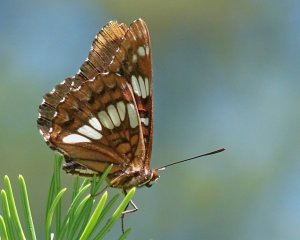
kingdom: Animalia
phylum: Arthropoda
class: Insecta
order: Lepidoptera
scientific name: Lepidoptera
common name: Butterflies
